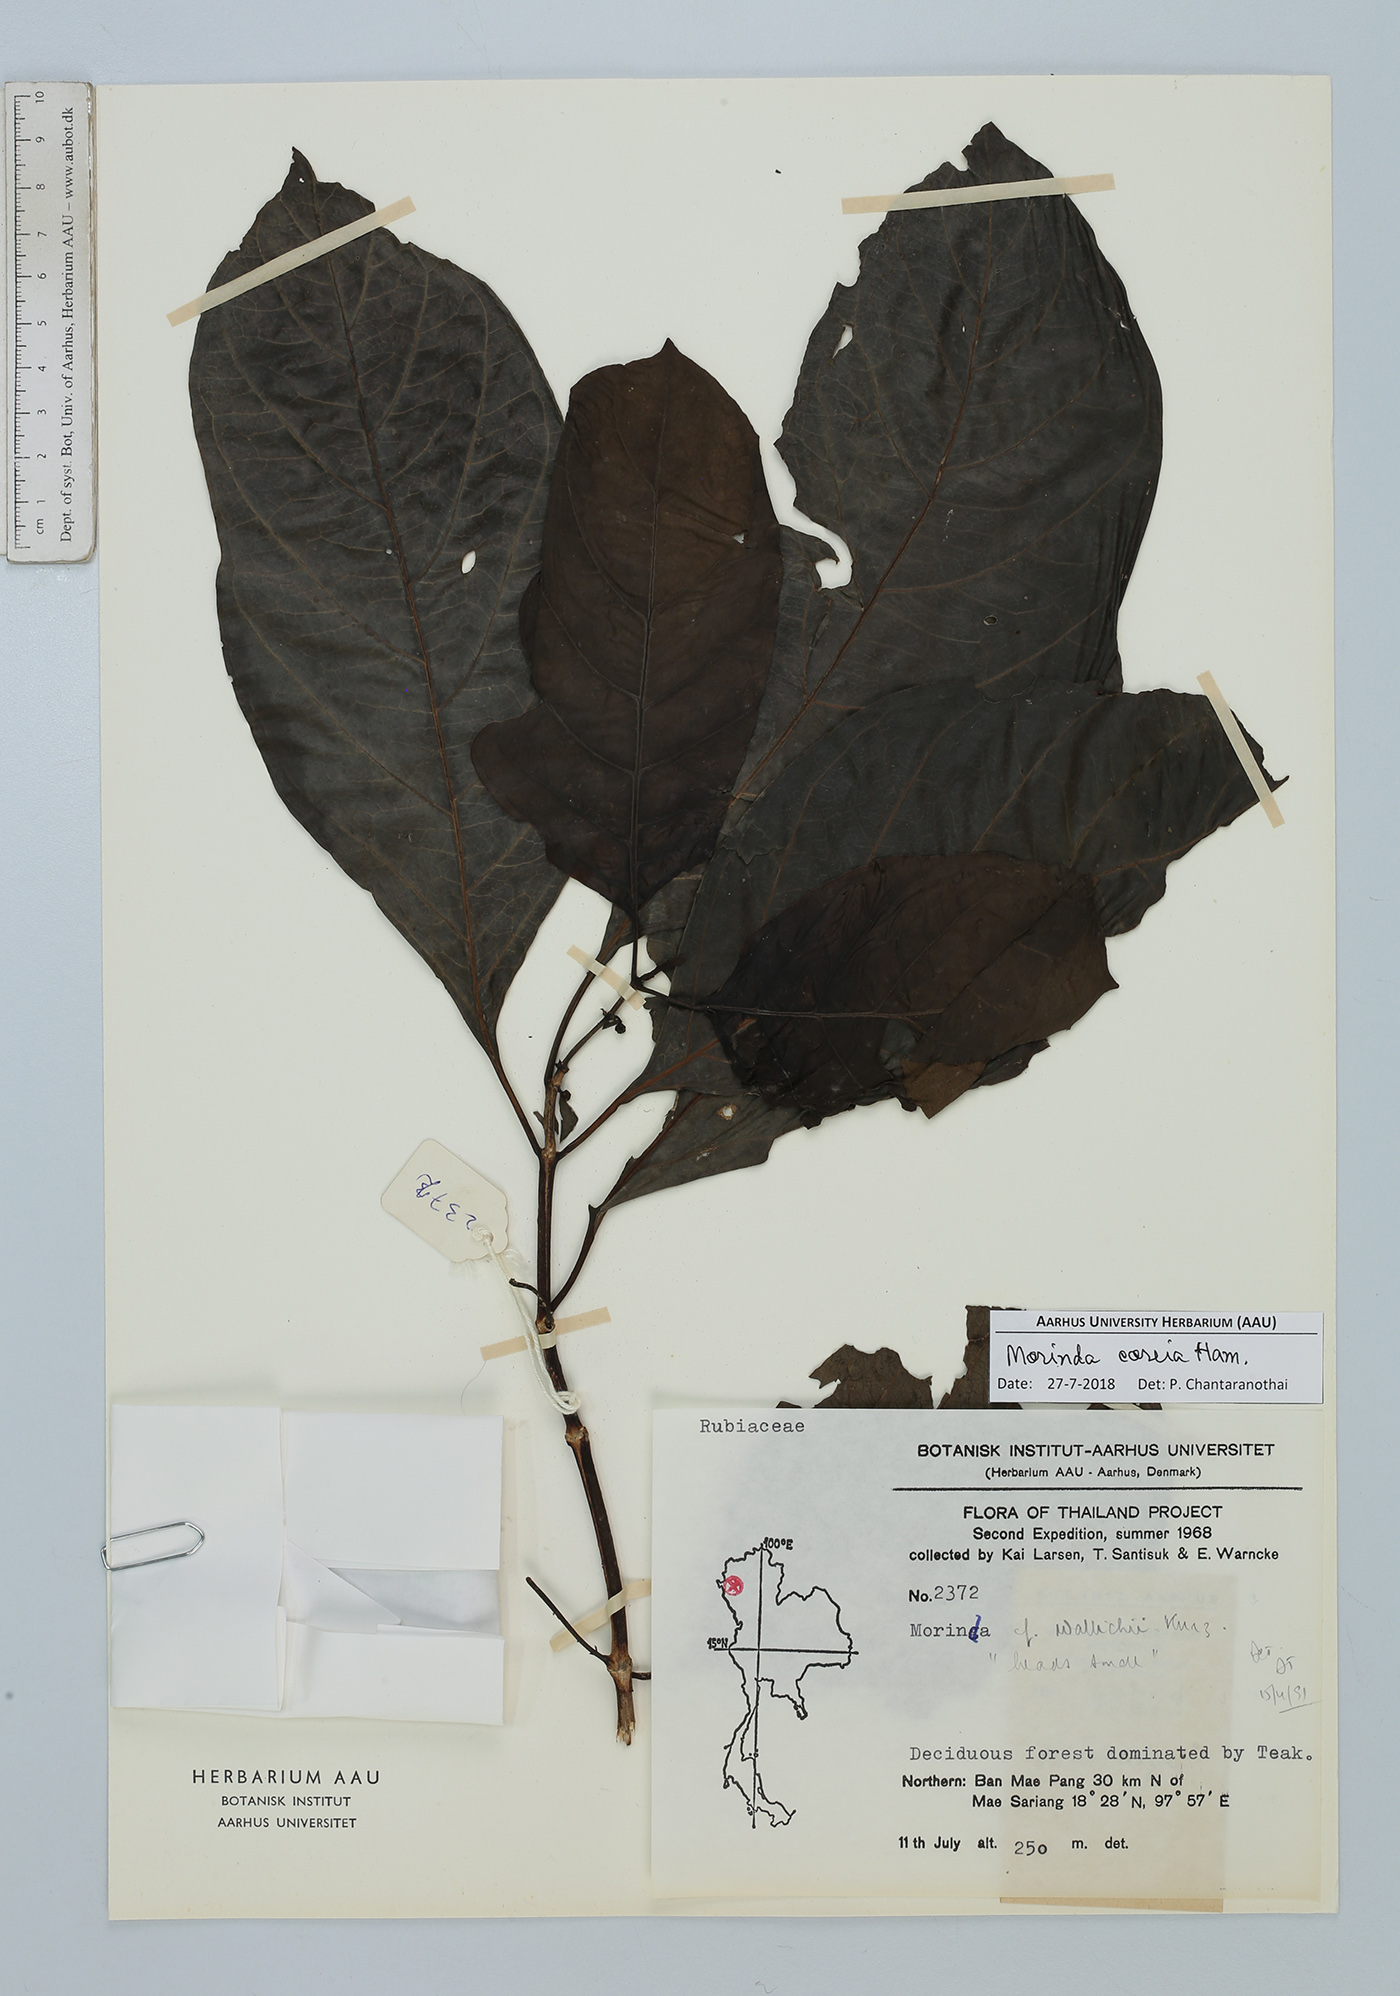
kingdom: Plantae
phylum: Tracheophyta
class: Magnoliopsida
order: Gentianales
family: Rubiaceae
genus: Morinda
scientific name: Morinda coreia
